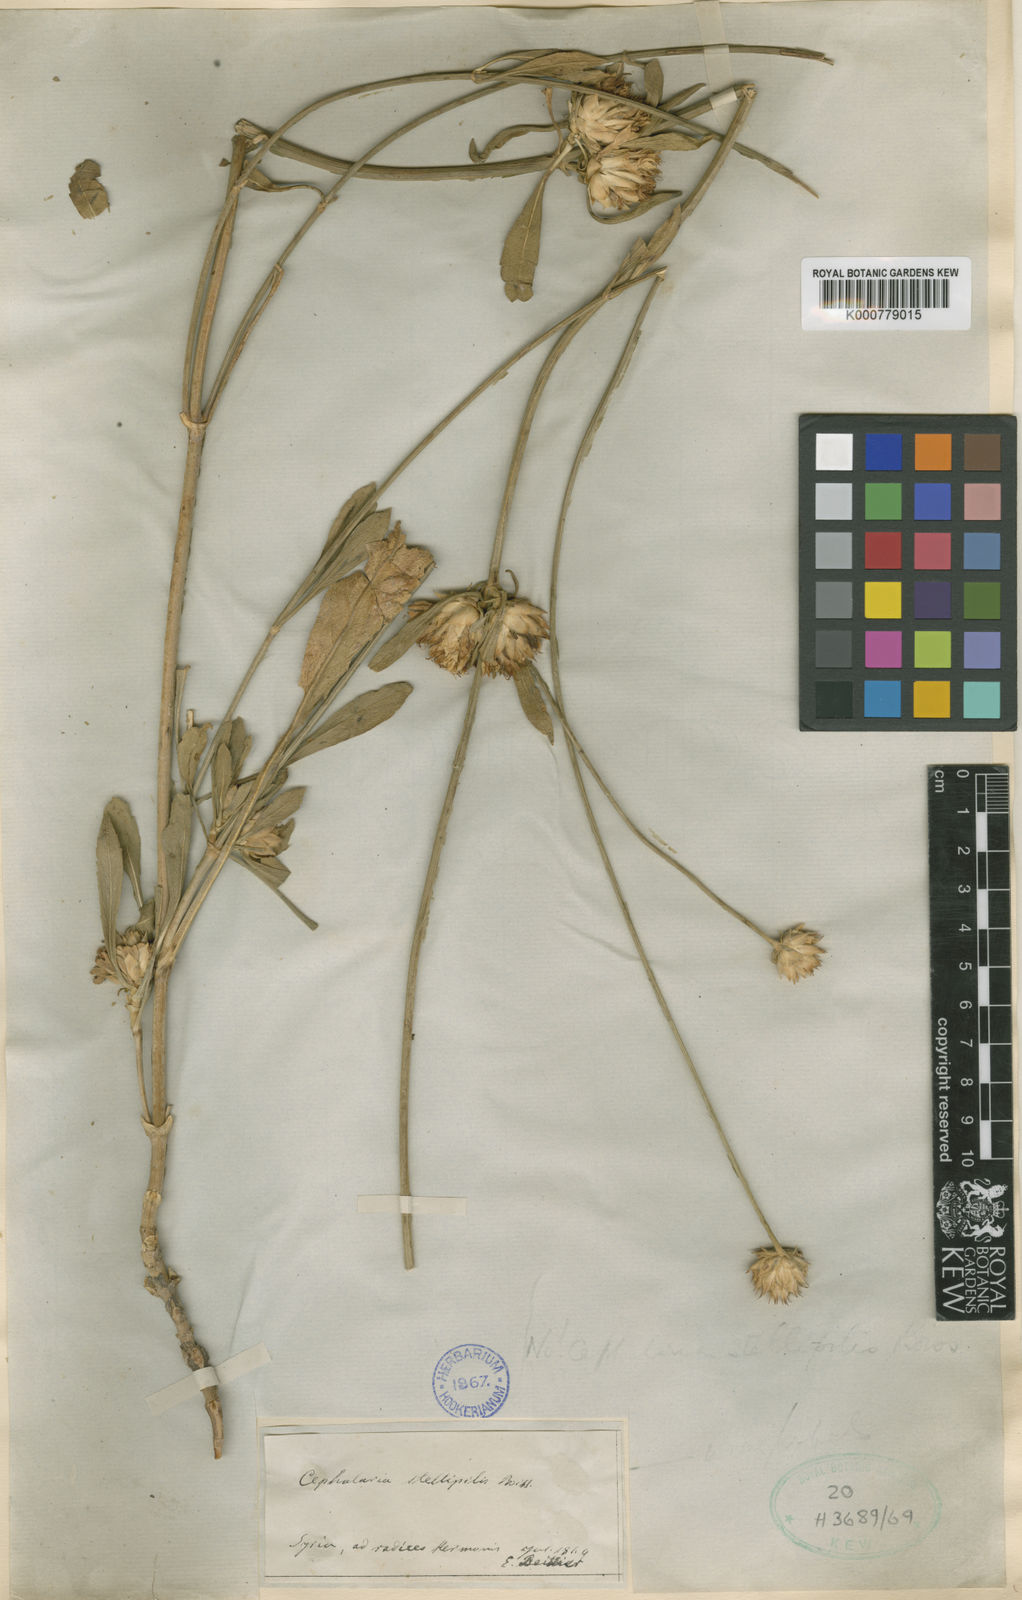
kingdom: Plantae
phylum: Tracheophyta
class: Magnoliopsida
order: Dipsacales
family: Caprifoliaceae
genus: Cephalaria
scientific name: Cephalaria uralensis
